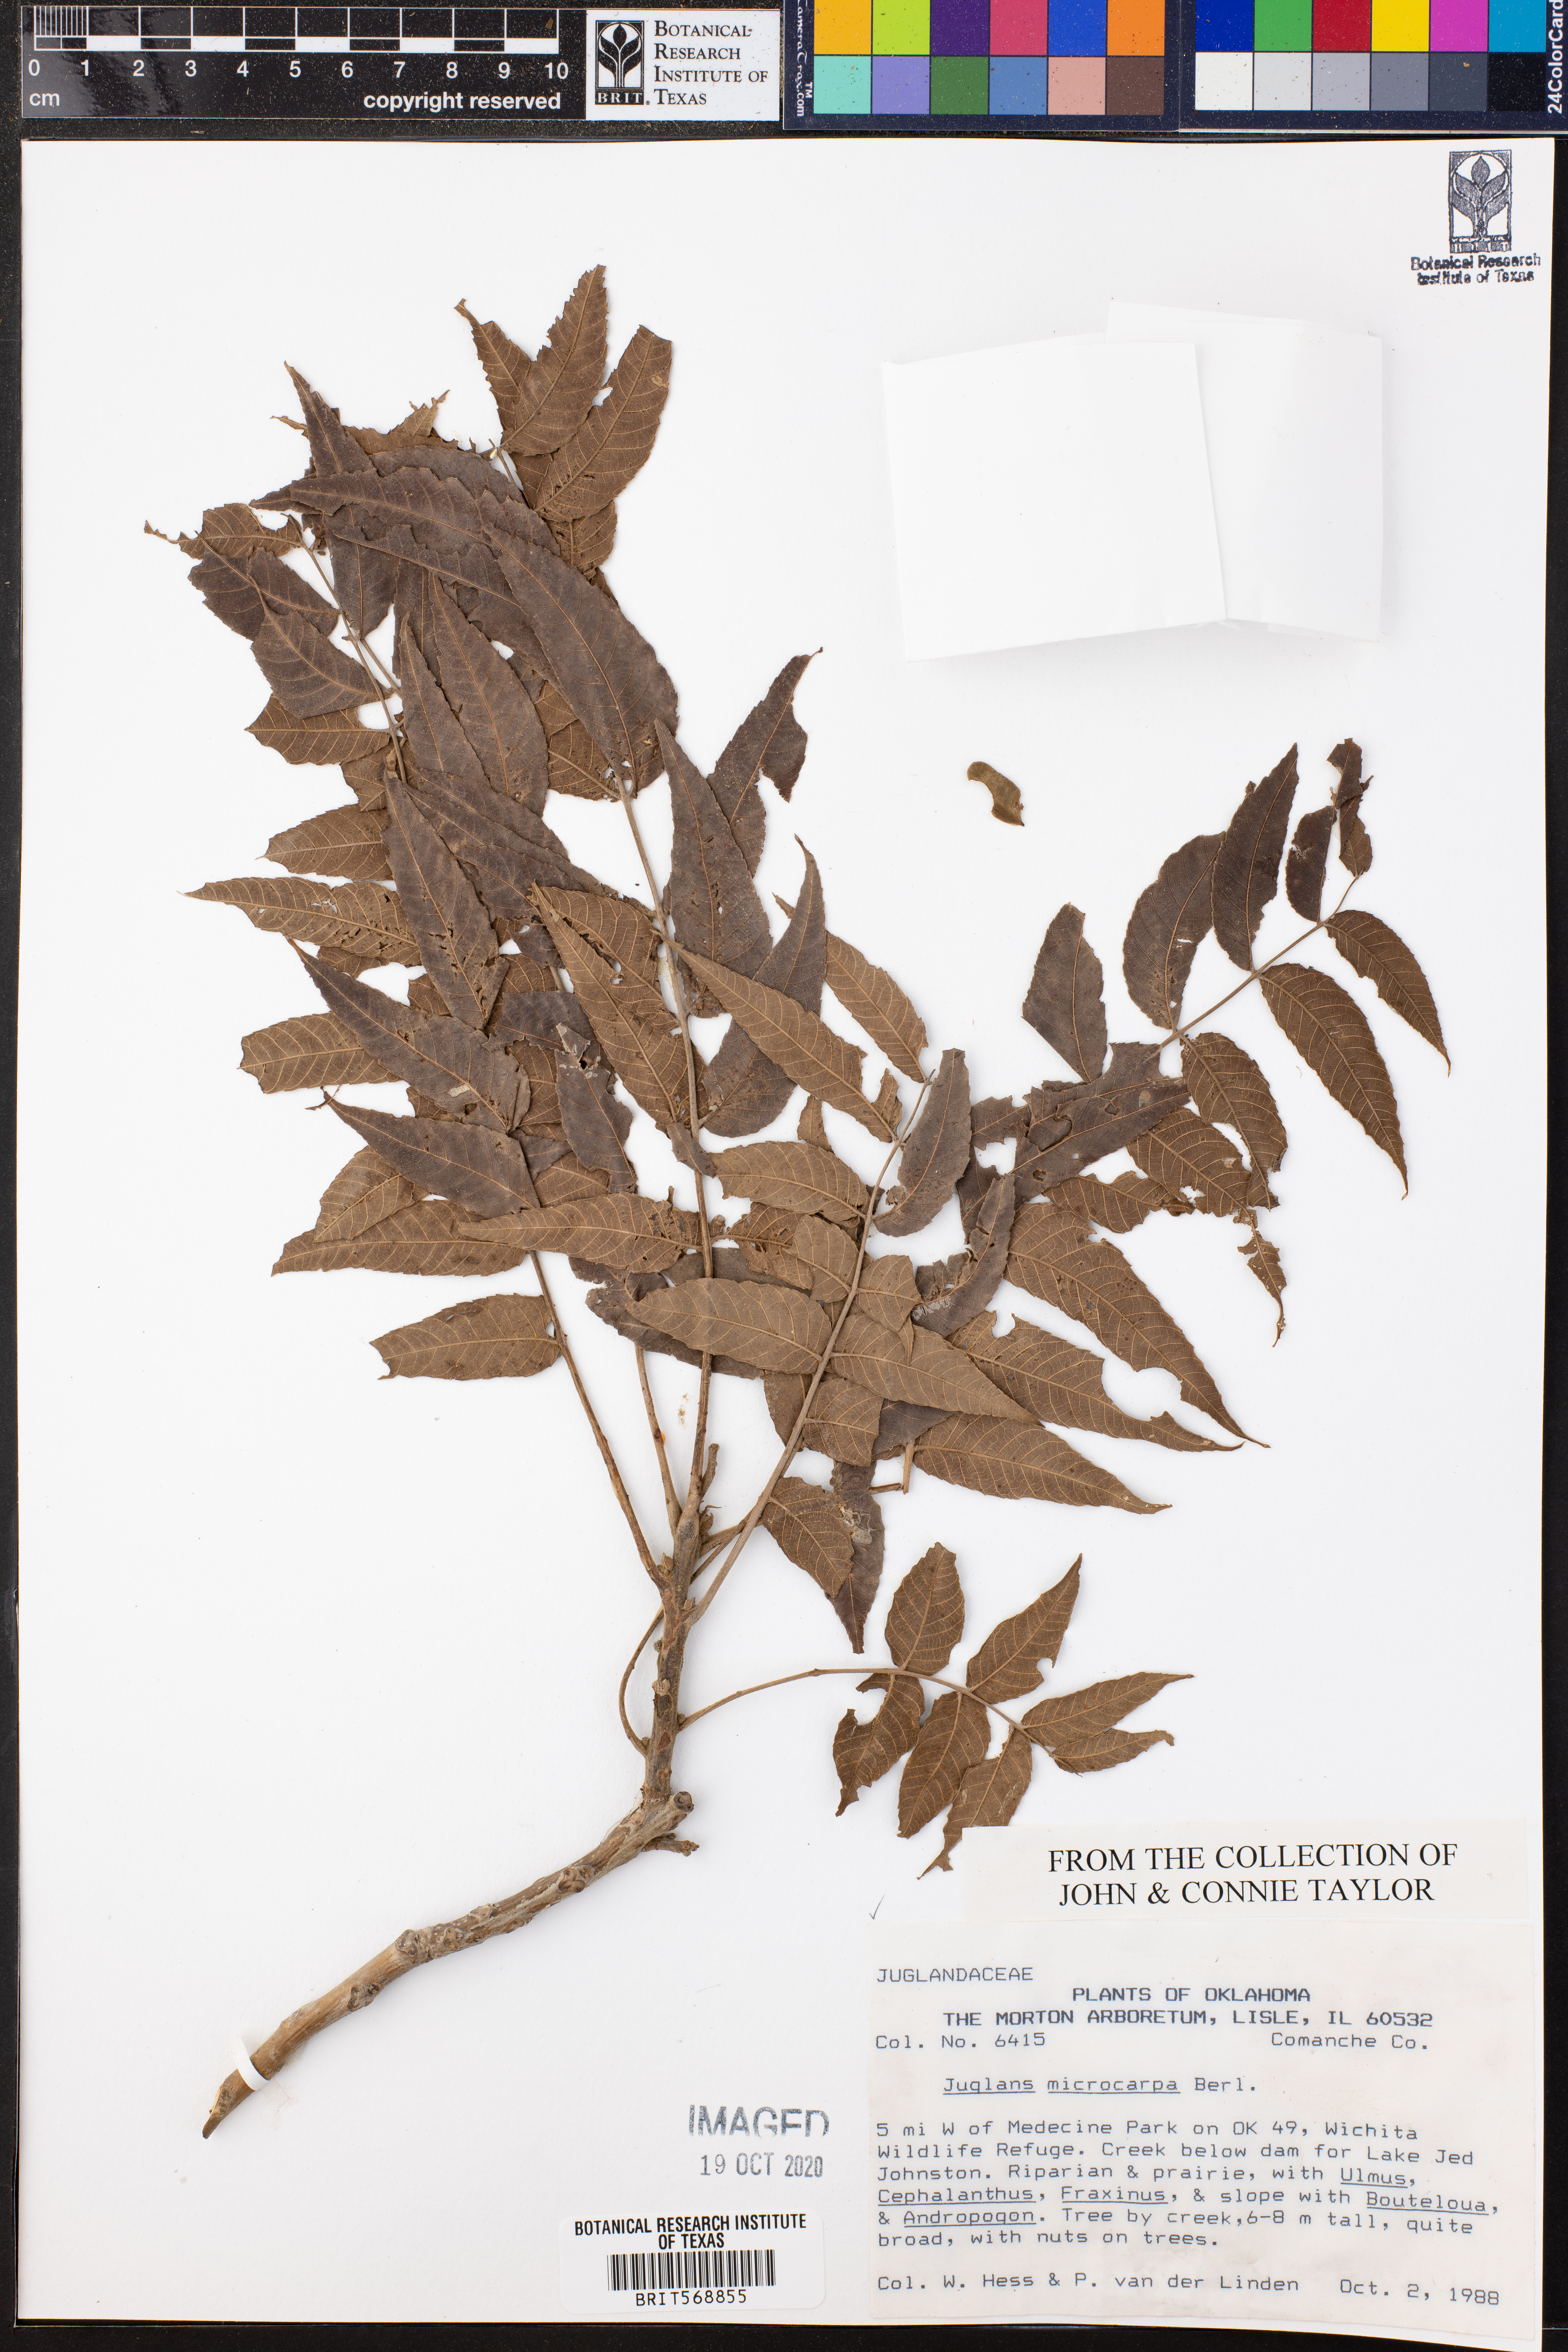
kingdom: Plantae
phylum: Tracheophyta
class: Magnoliopsida
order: Fagales
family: Juglandaceae
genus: Juglans
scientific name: Juglans microcarpa
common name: Texas walnut
